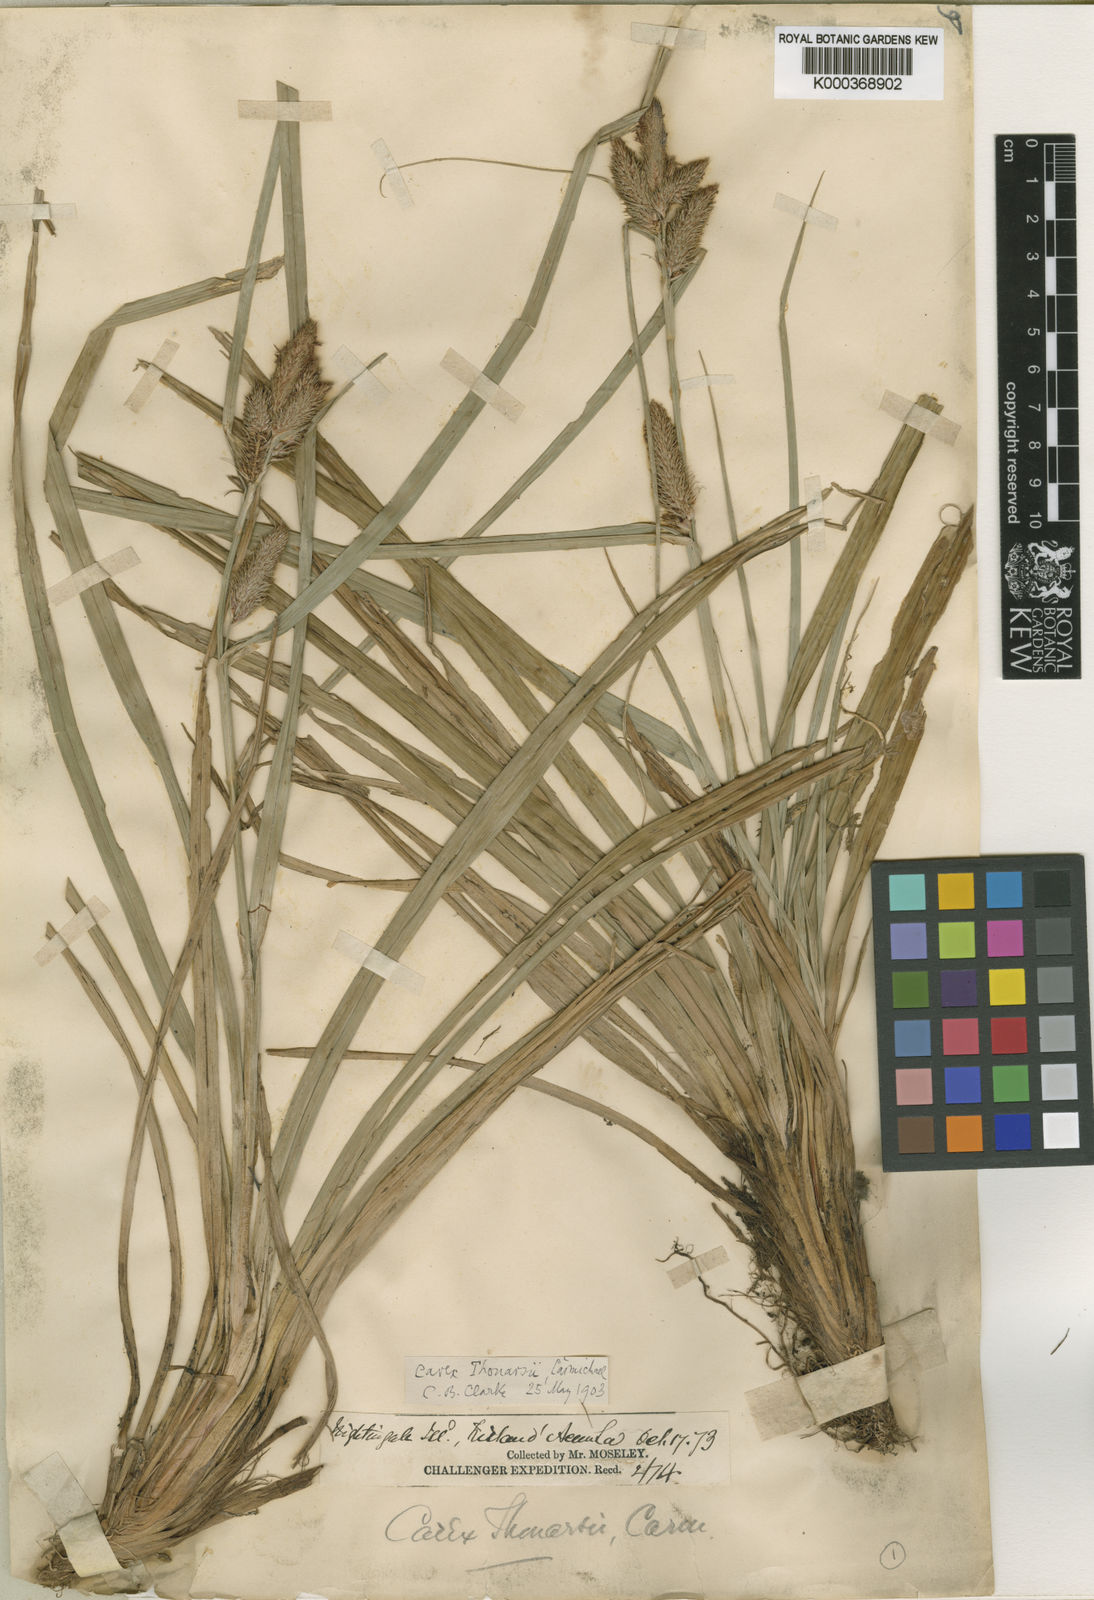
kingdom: Plantae
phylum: Tracheophyta
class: Liliopsida
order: Poales
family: Cyperaceae
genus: Carex
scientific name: Carex thouarsii
